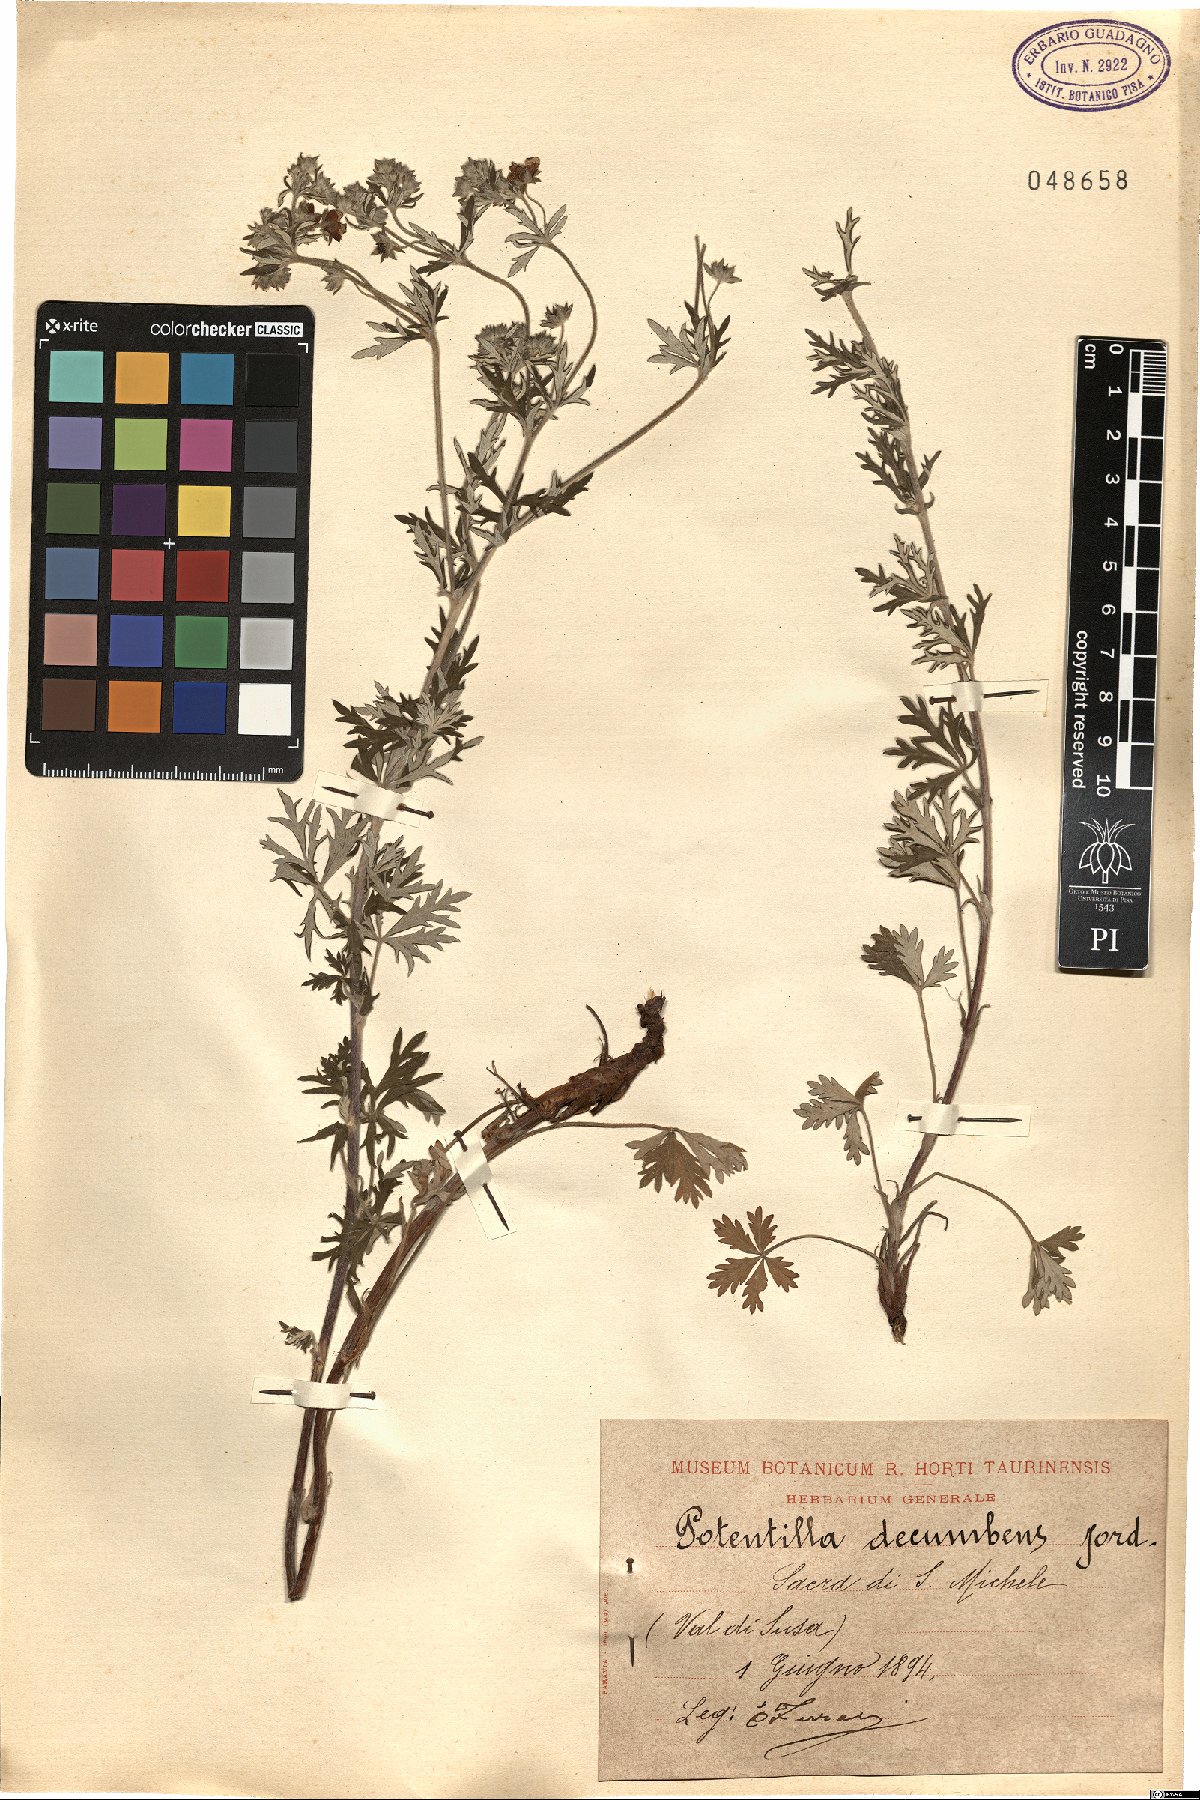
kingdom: Plantae
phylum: Tracheophyta
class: Magnoliopsida
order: Rosales
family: Rosaceae
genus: Potentilla
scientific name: Potentilla argentea
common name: Hoary cinquefoil
